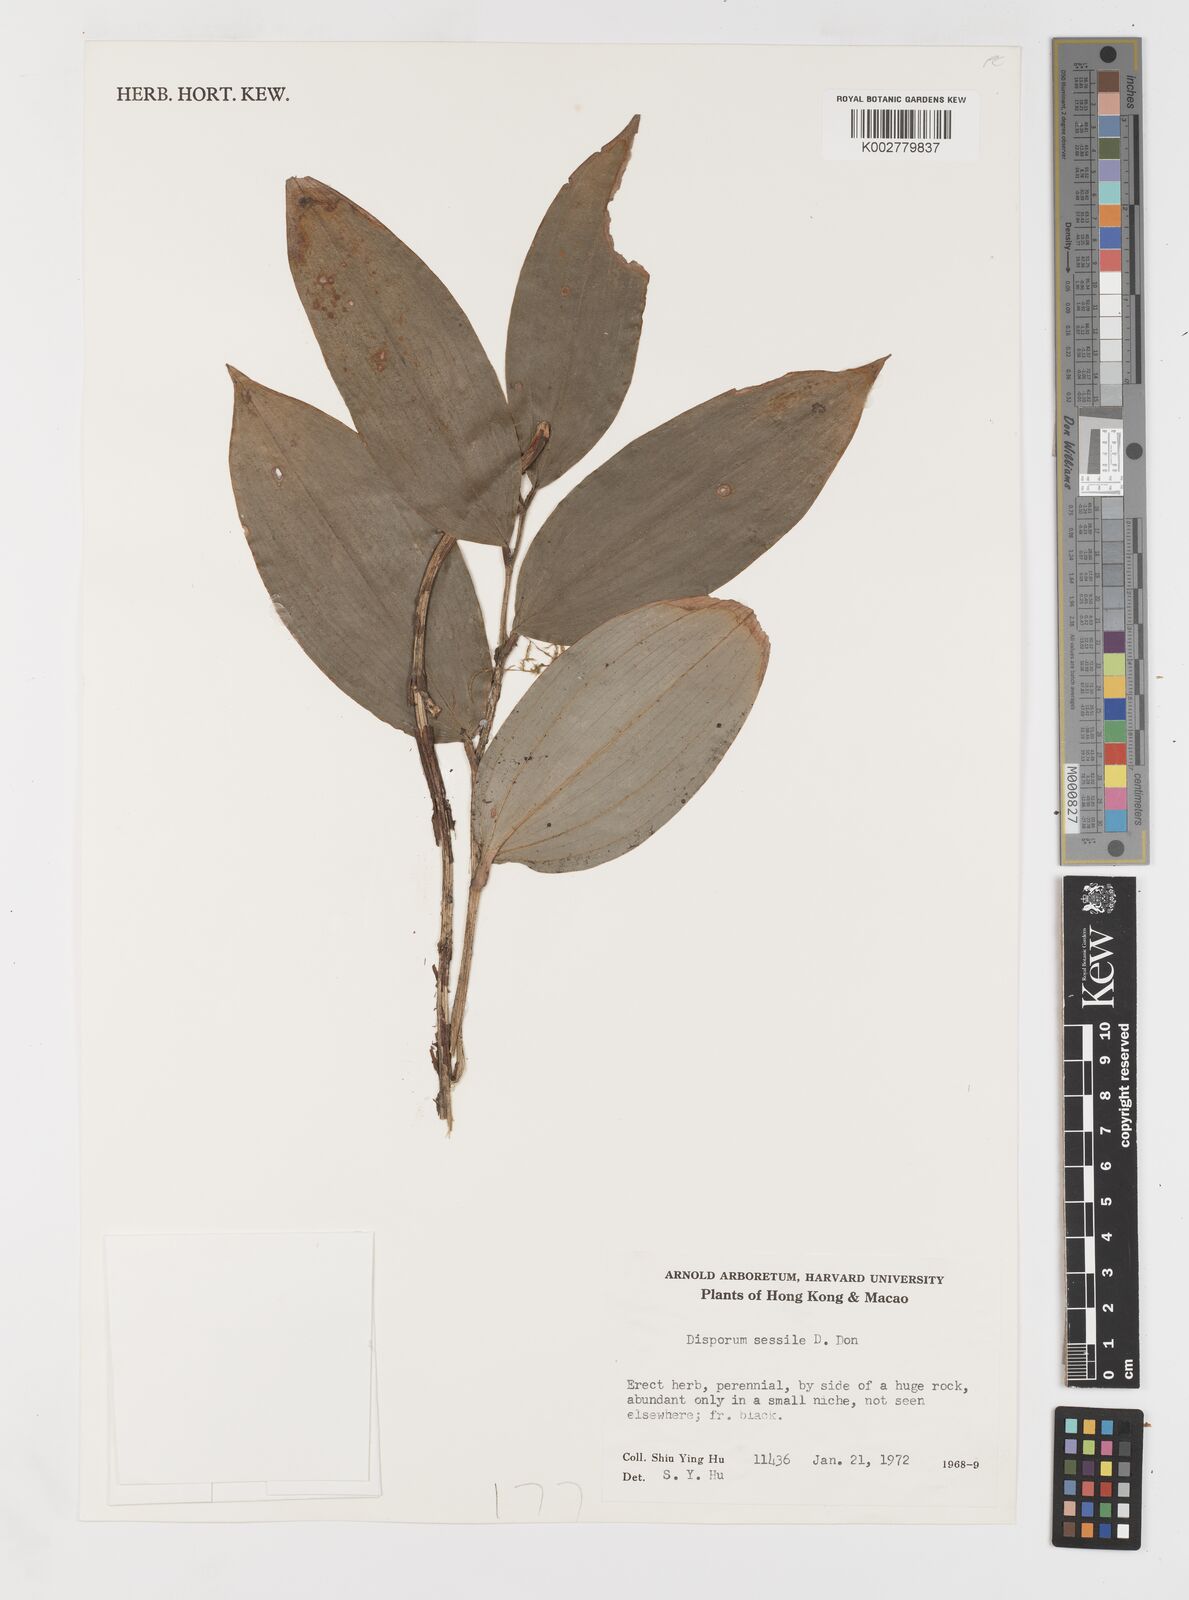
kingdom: Plantae
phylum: Tracheophyta
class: Liliopsida
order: Liliales
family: Colchicaceae
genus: Disporum
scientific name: Disporum sessile
